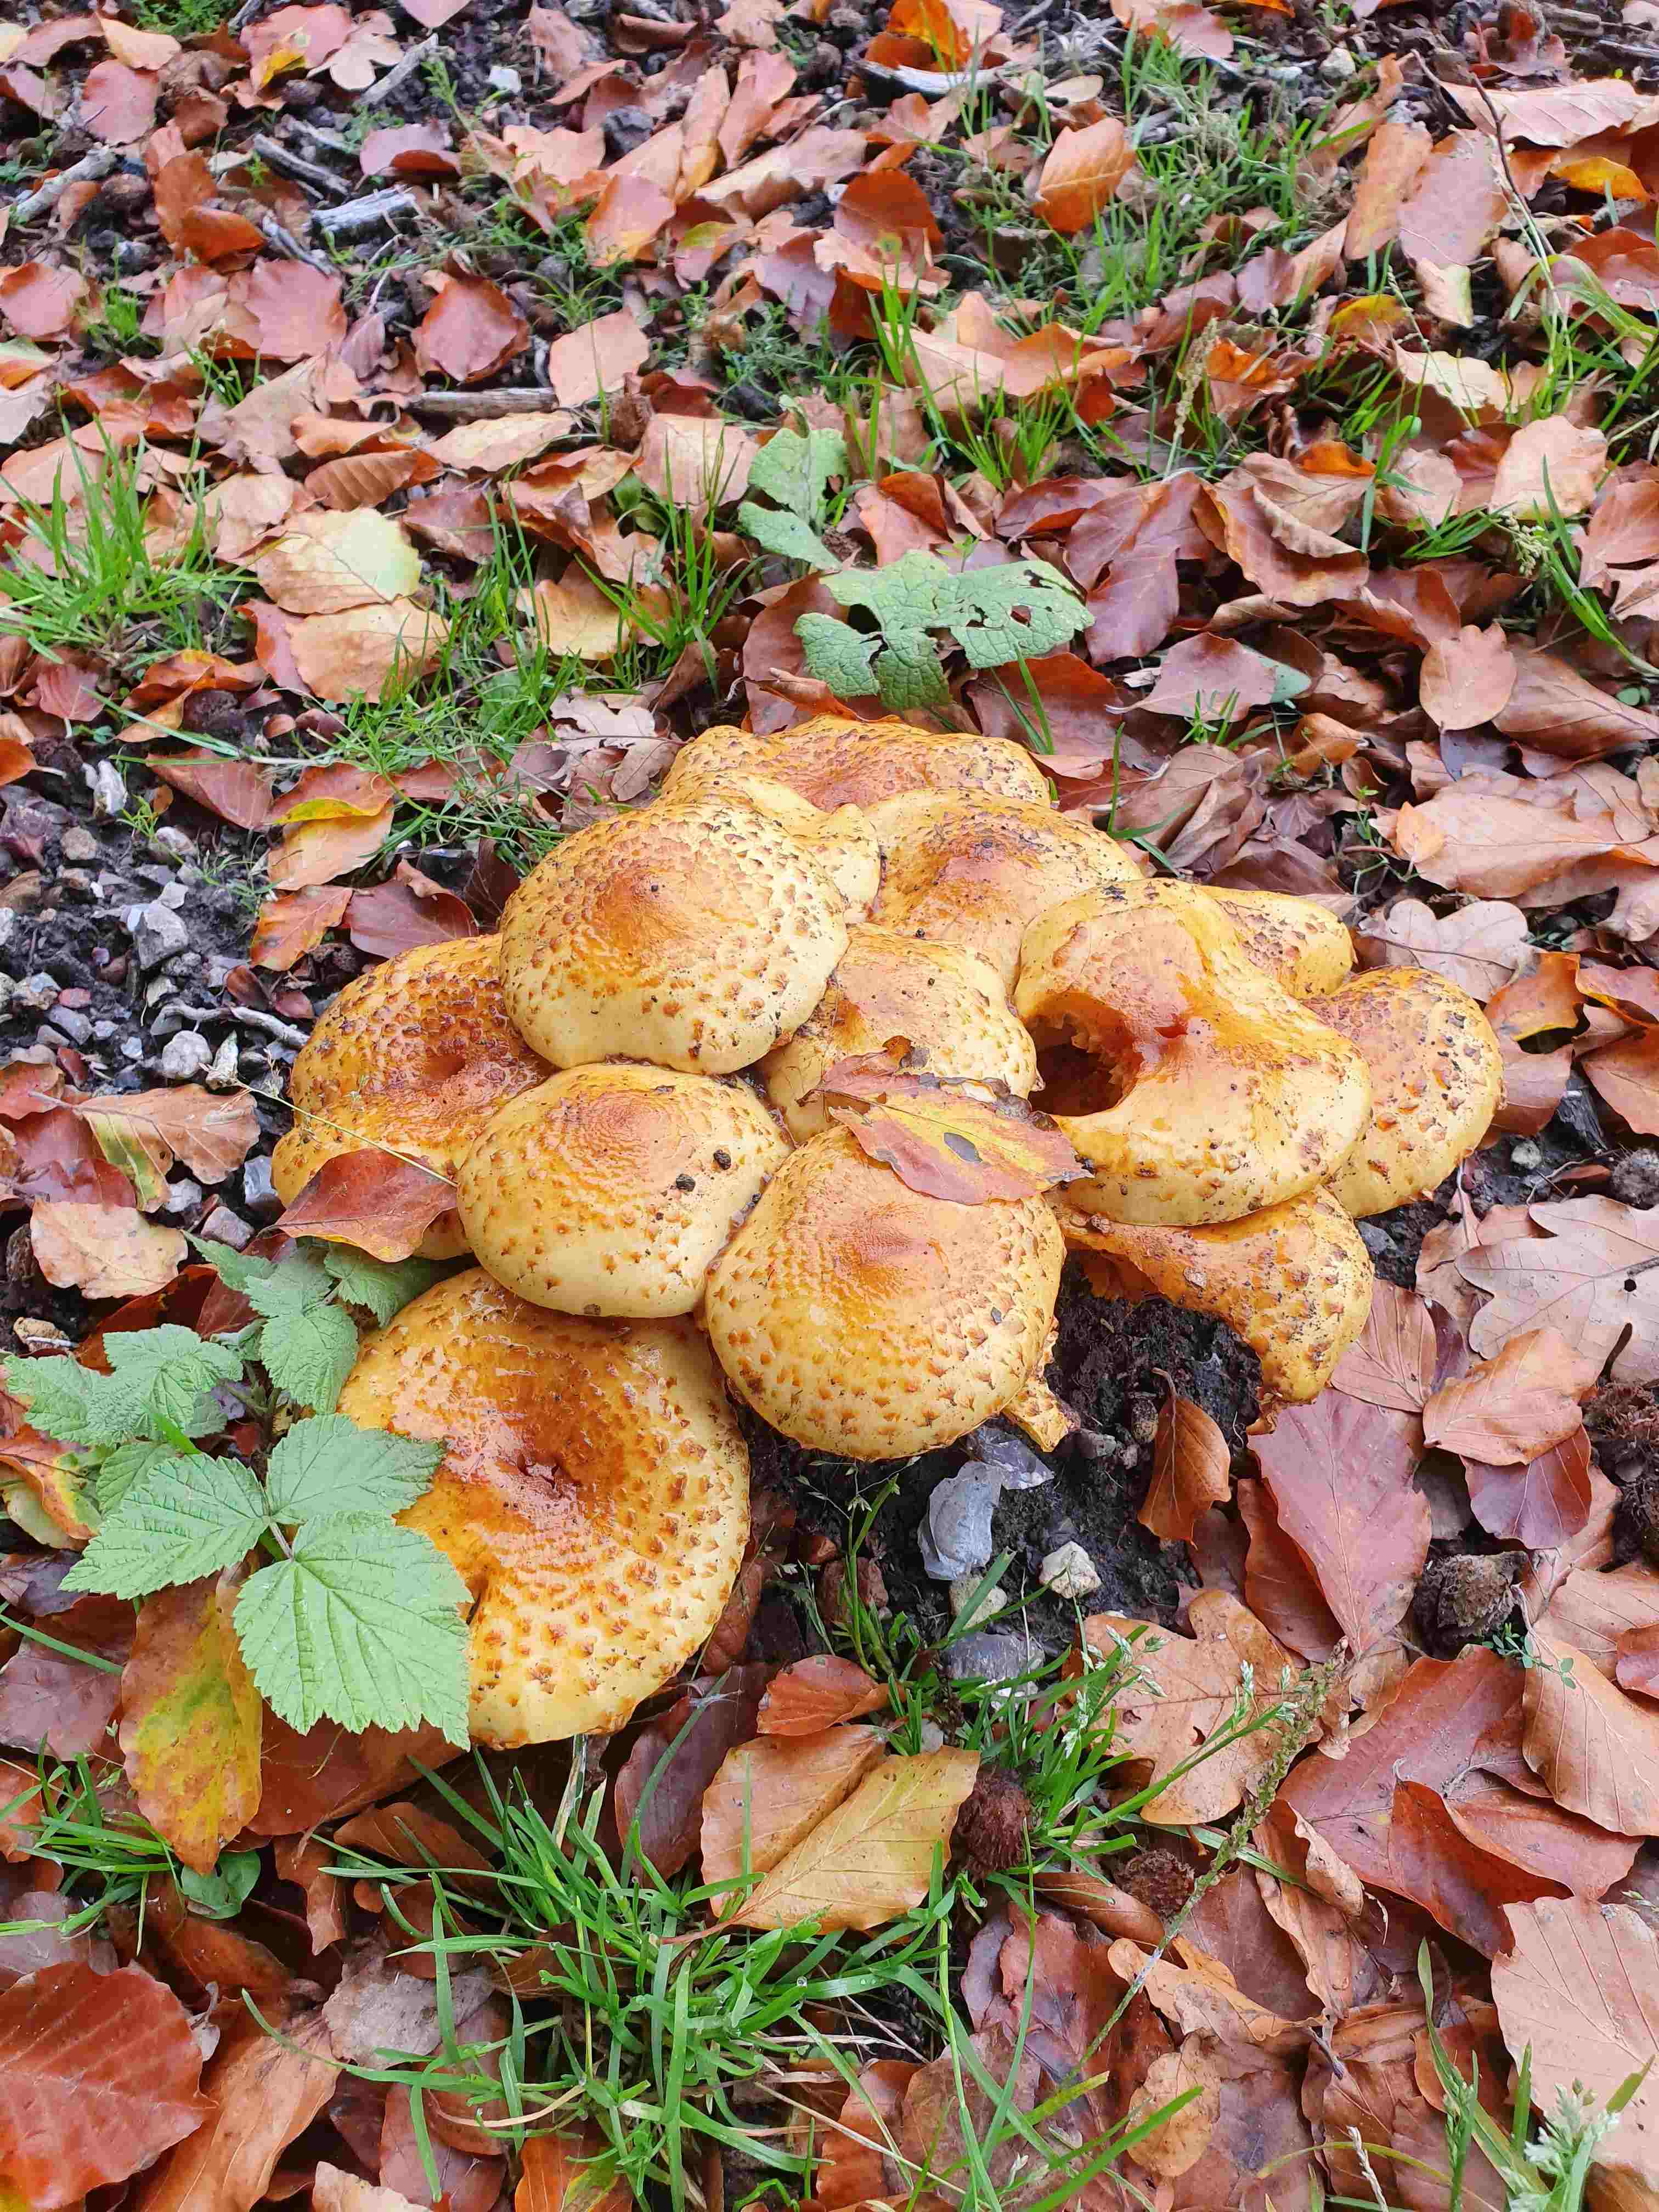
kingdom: Fungi
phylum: Basidiomycota
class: Agaricomycetes
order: Agaricales
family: Strophariaceae
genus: Pholiota
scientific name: Pholiota jahnii
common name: slimet skælhat
